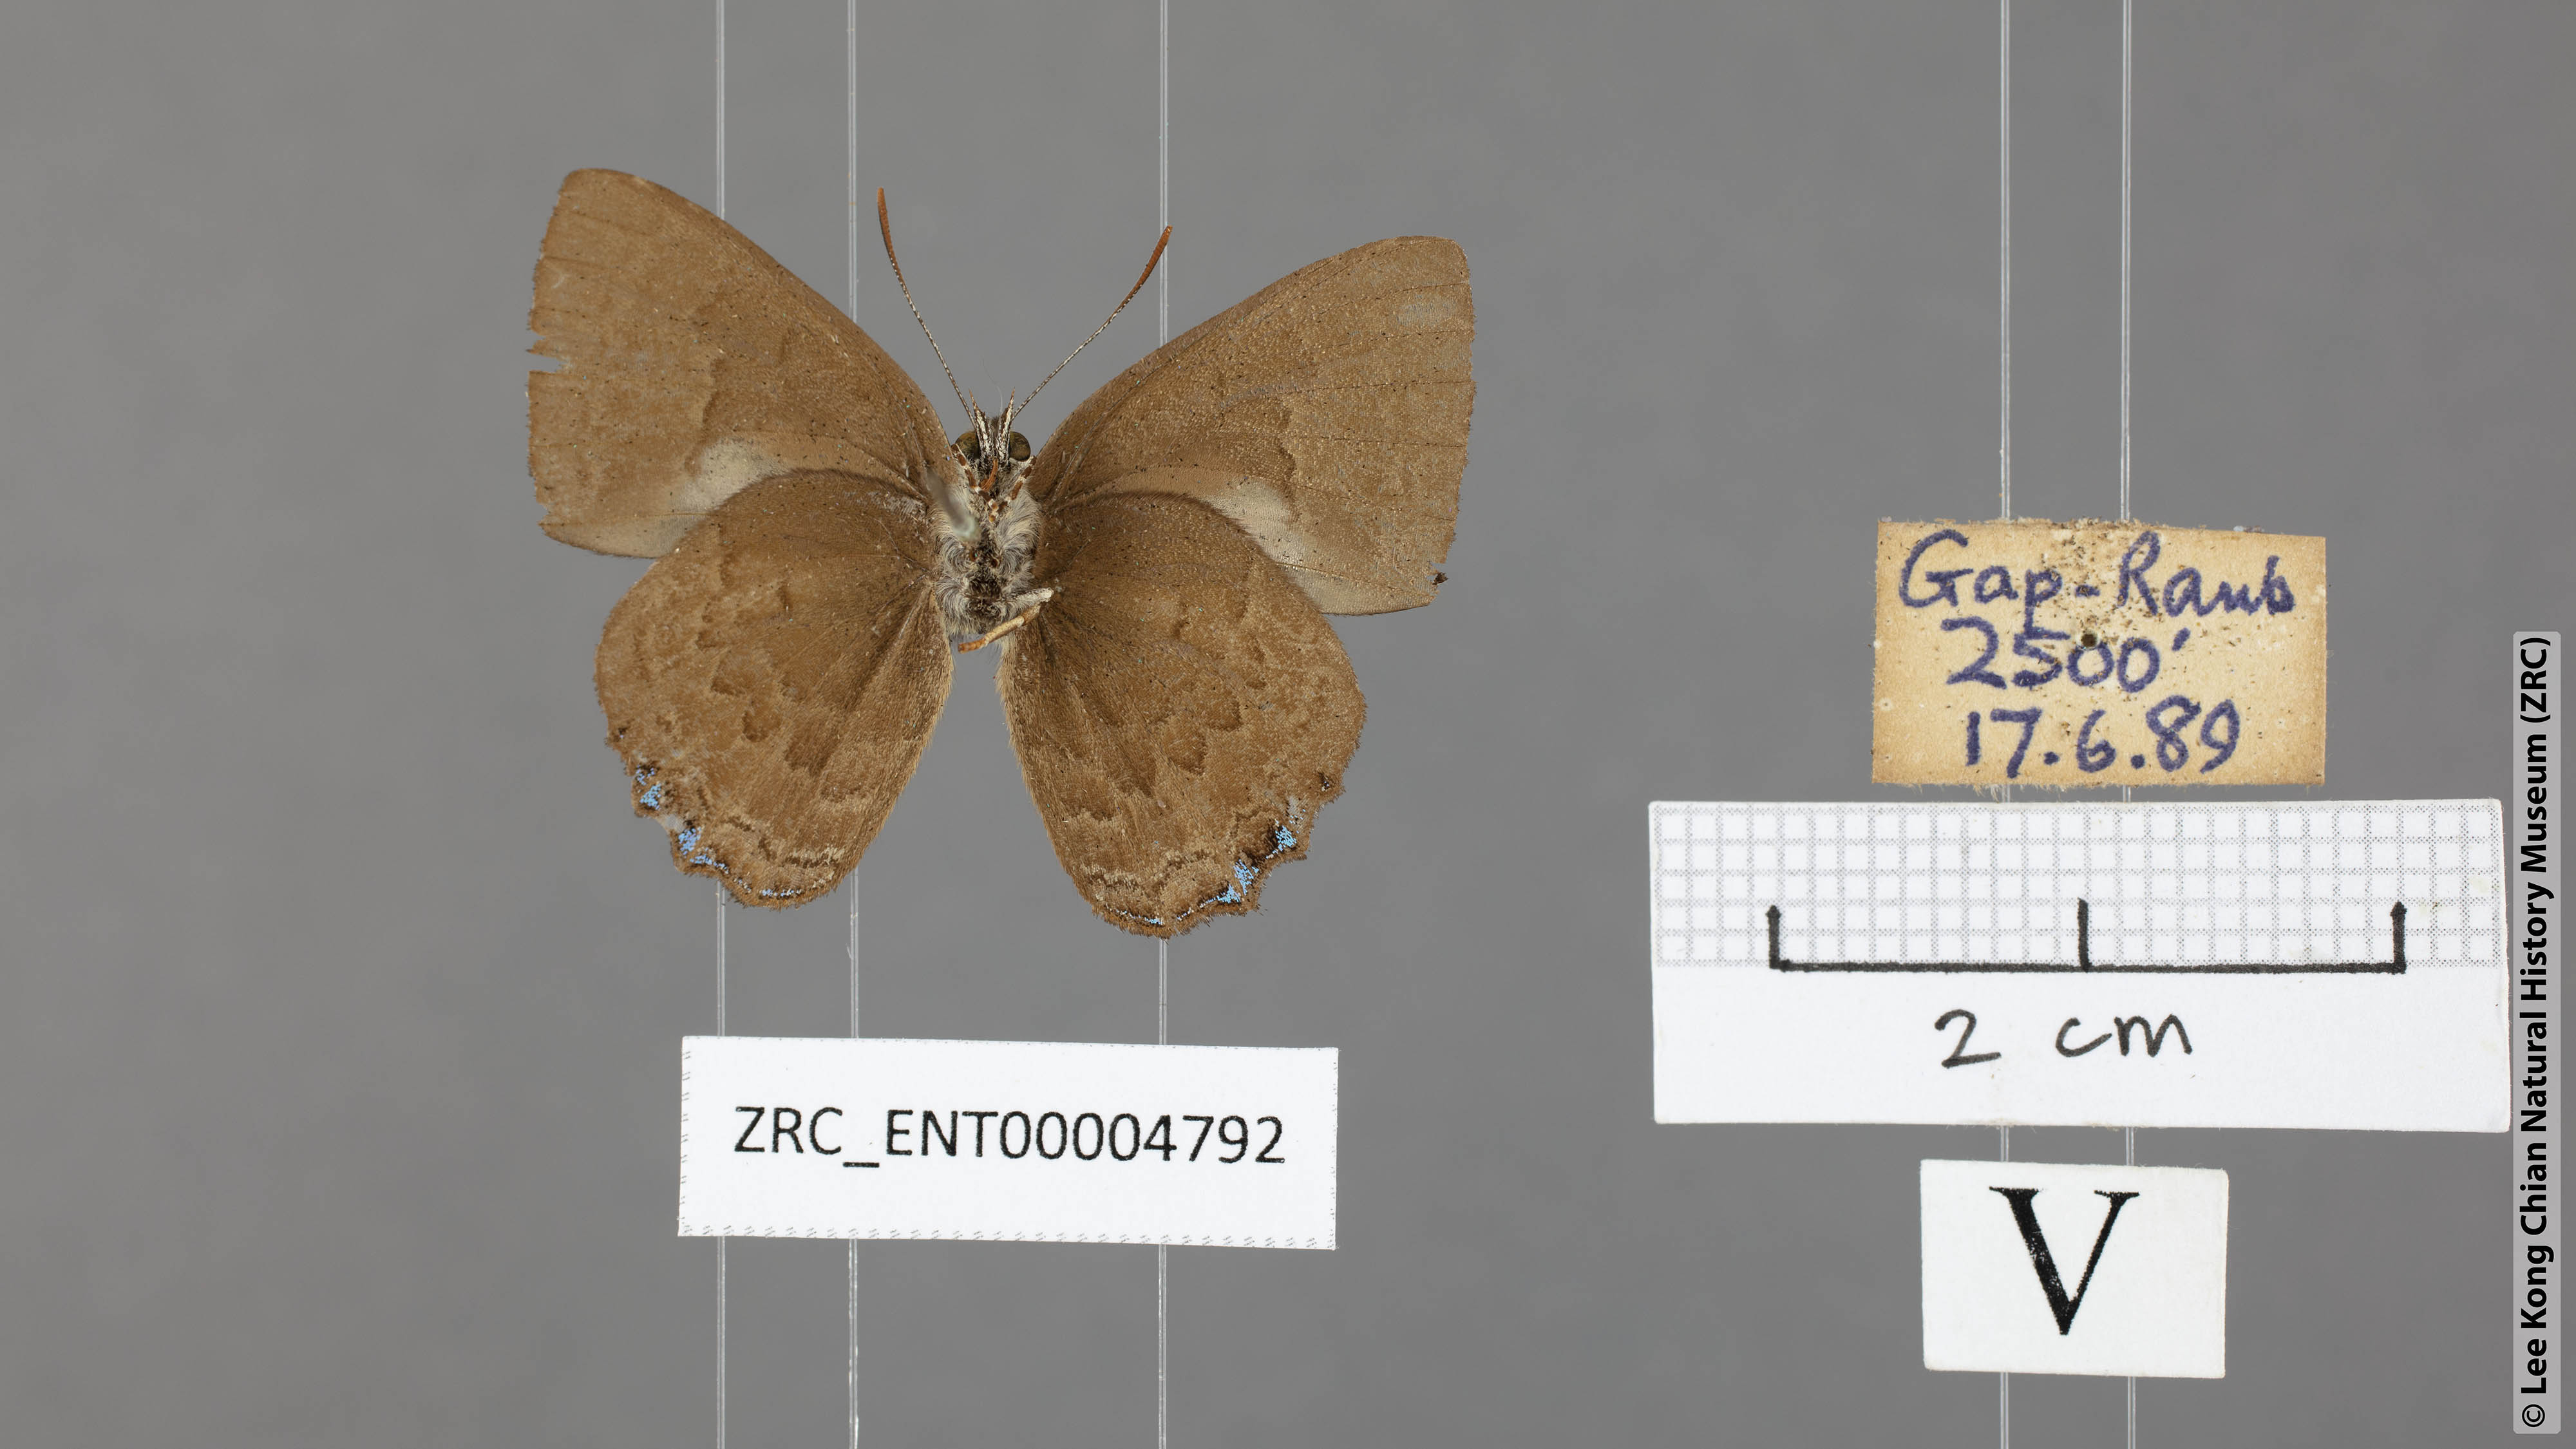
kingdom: Animalia
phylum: Arthropoda
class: Insecta
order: Lepidoptera
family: Lycaenidae
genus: Poritia
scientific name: Poritia proxina
